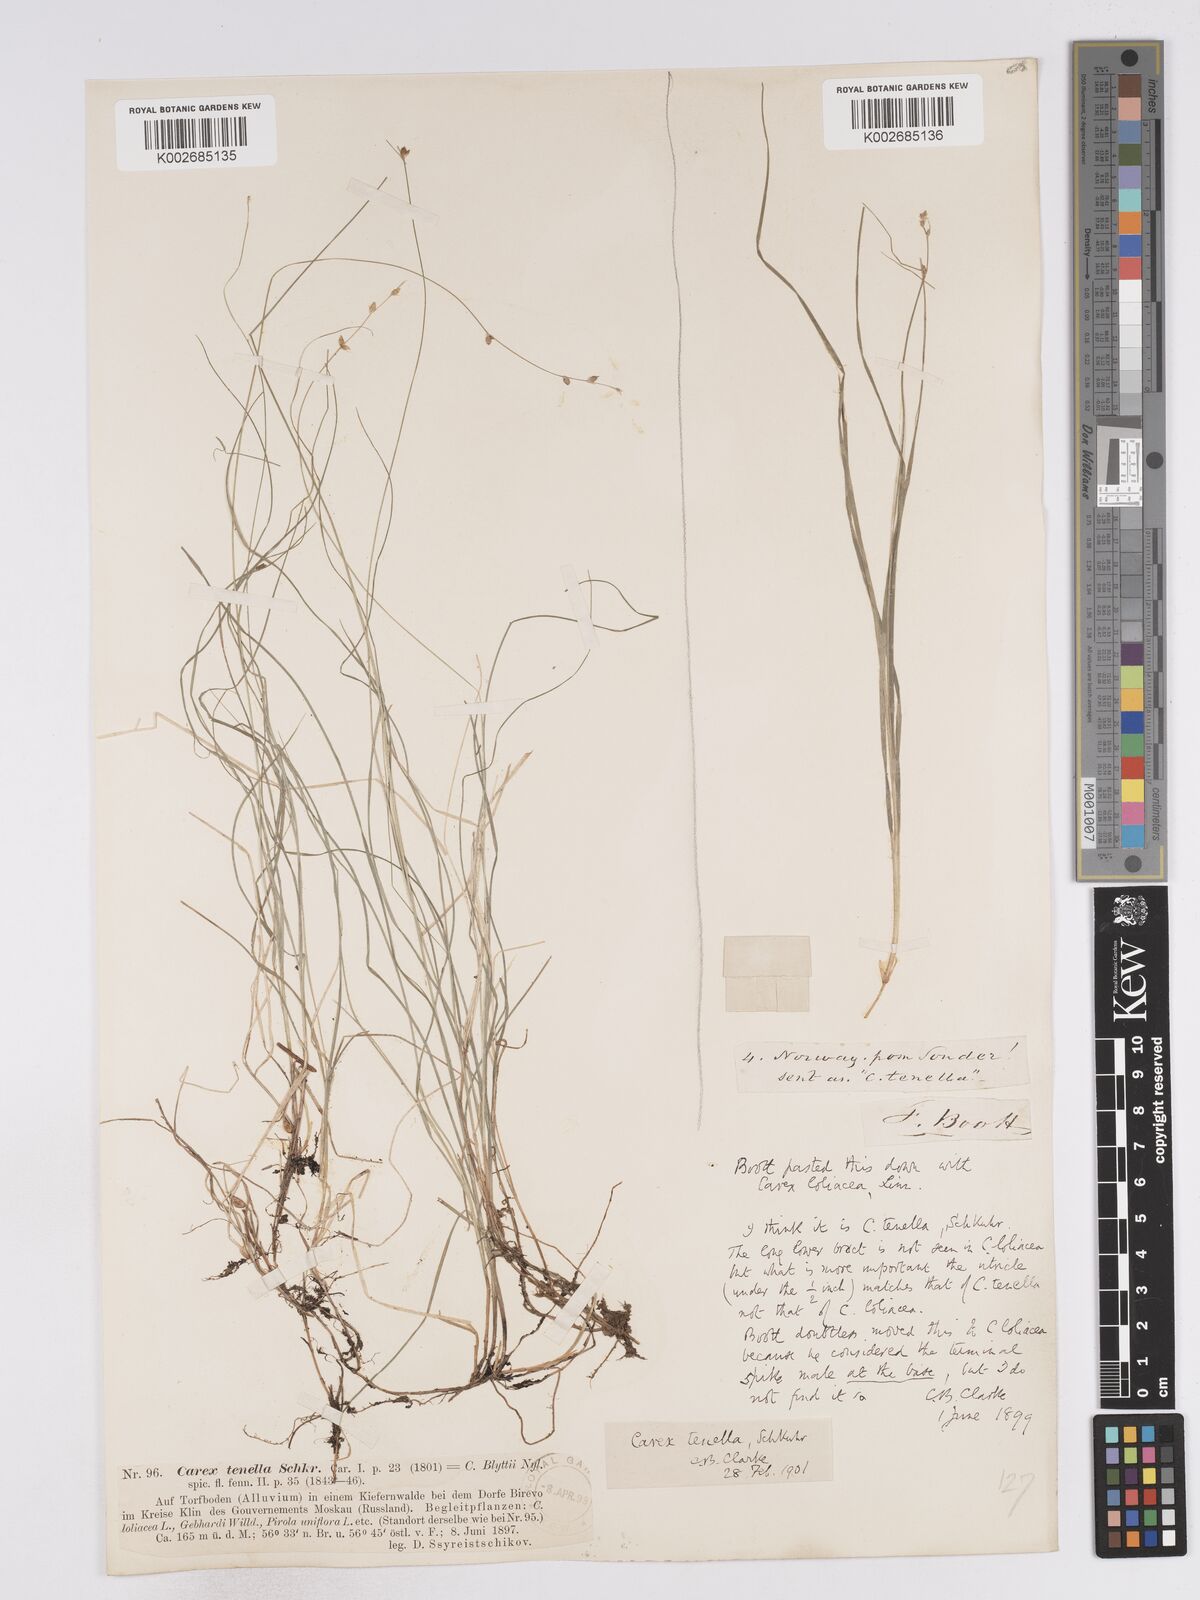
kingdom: Plantae
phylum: Tracheophyta
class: Liliopsida
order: Poales
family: Cyperaceae
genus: Carex
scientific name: Carex disperma
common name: Short-leaved sedge
